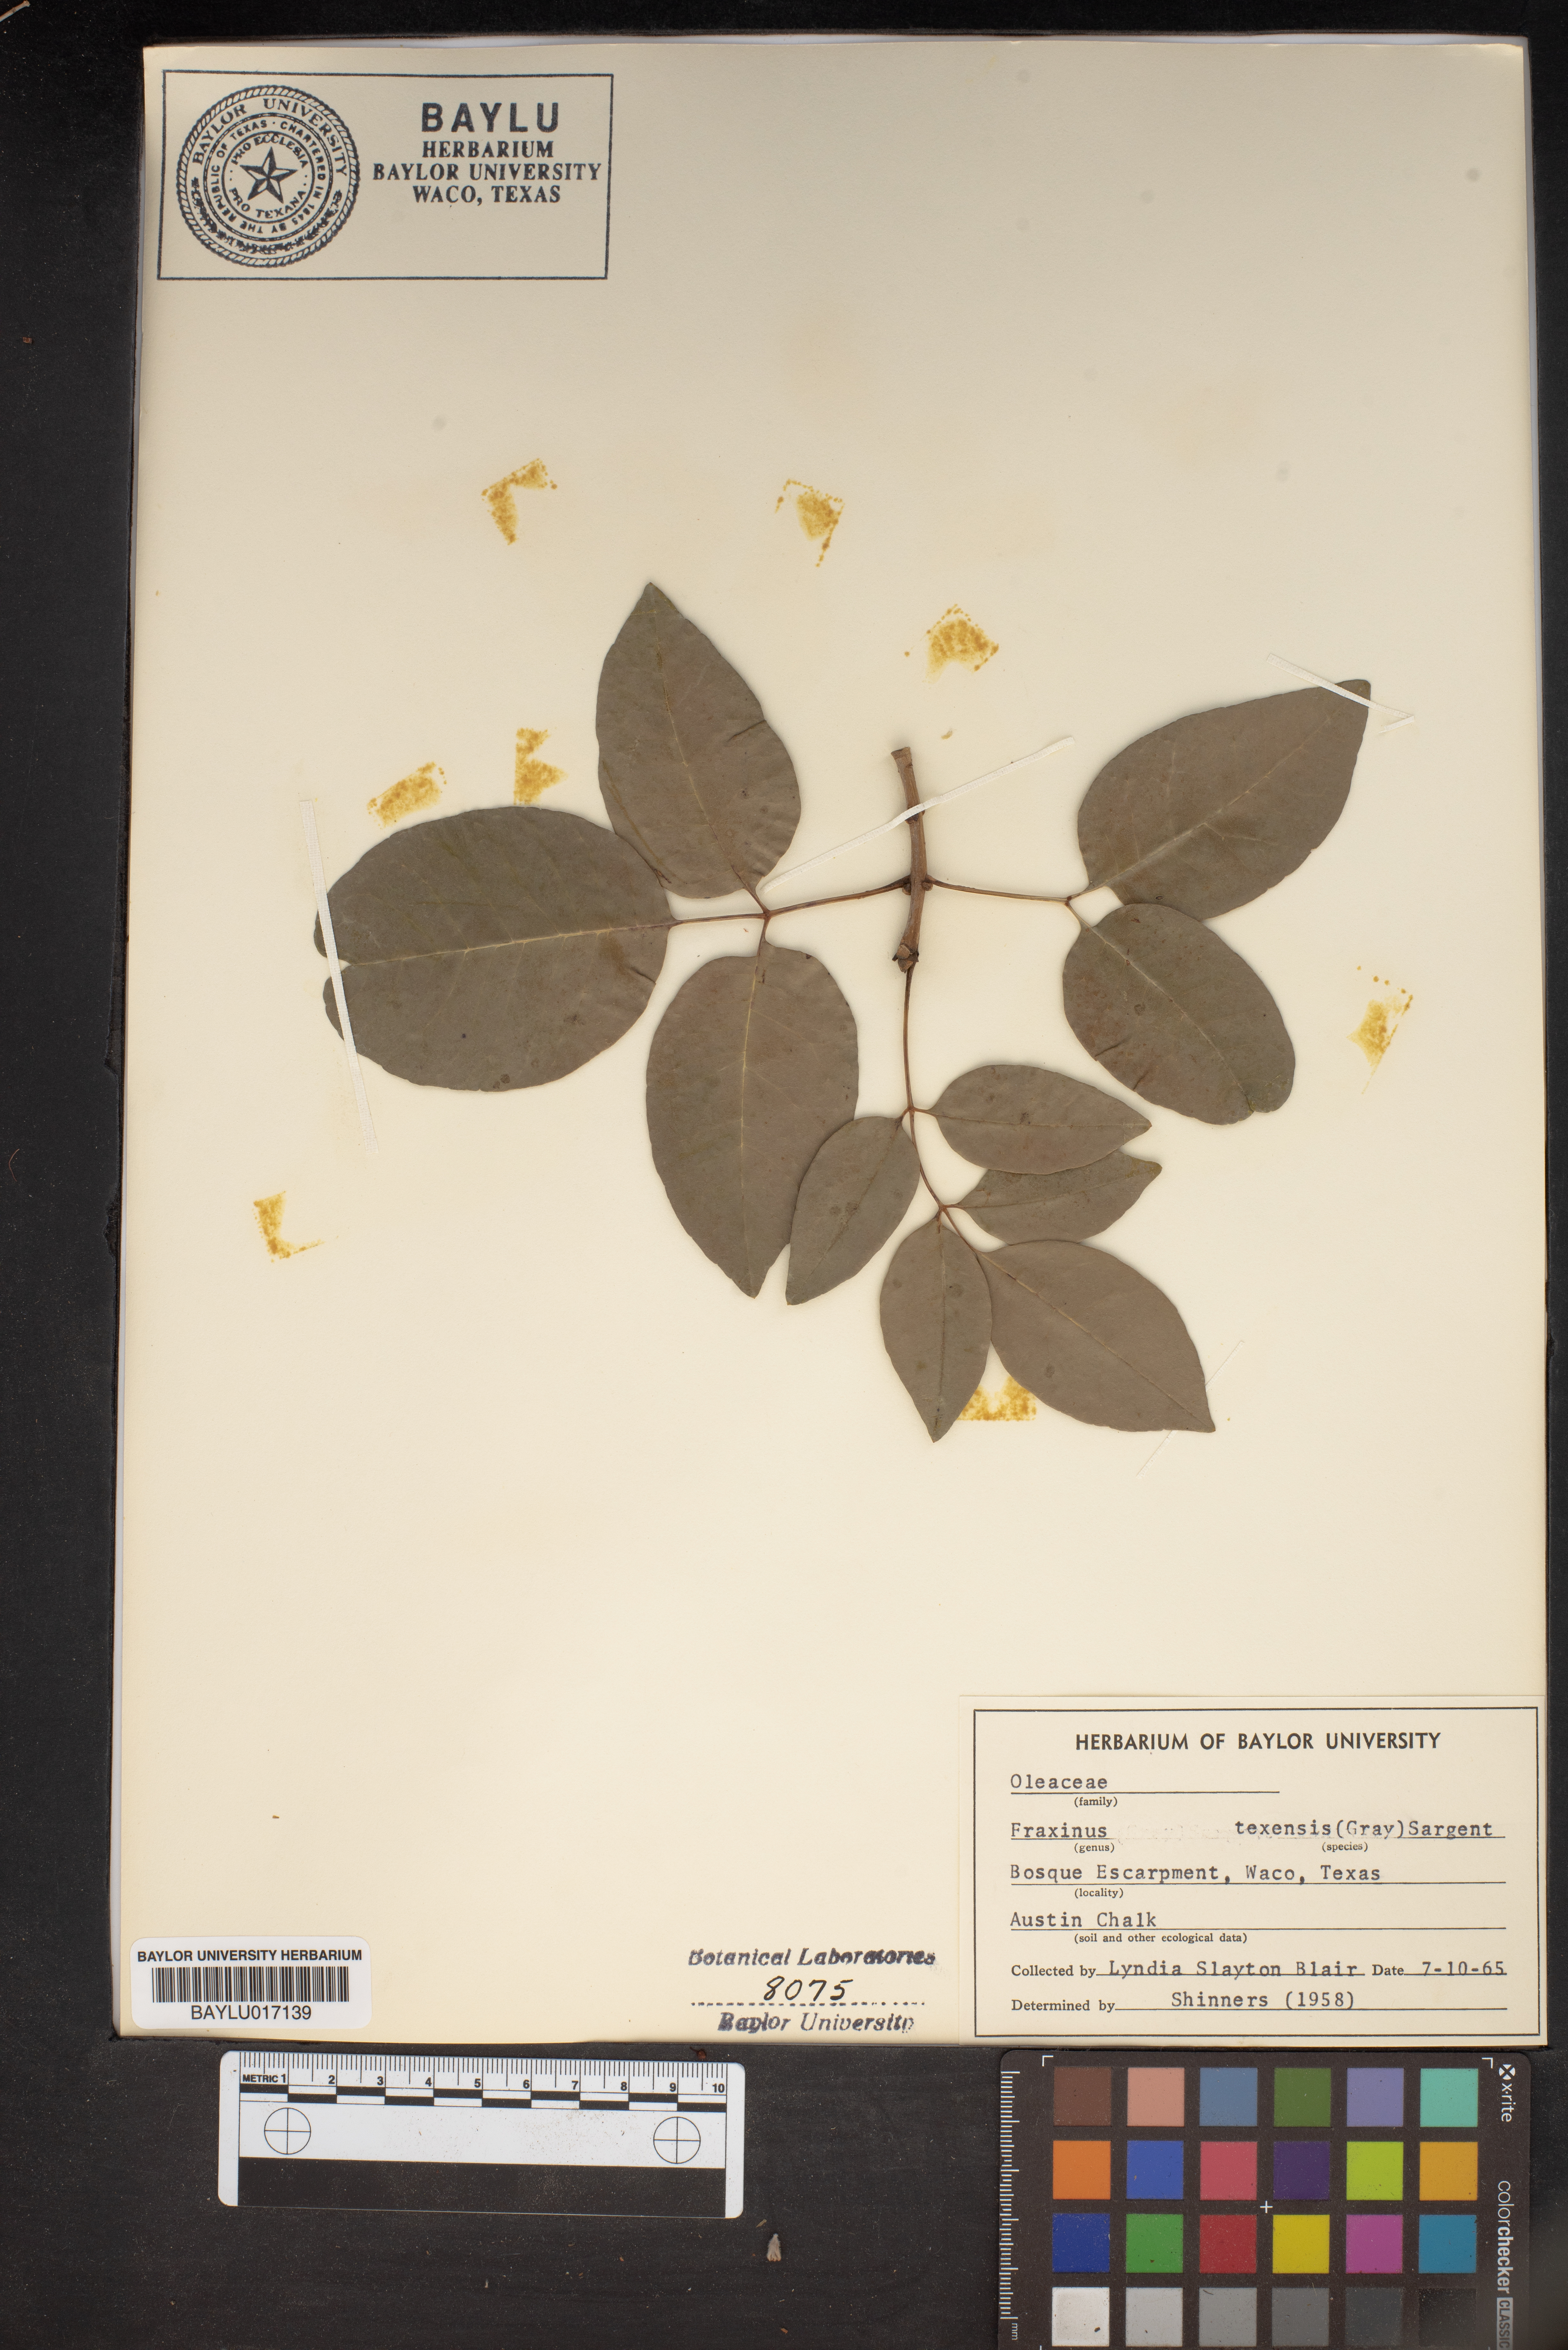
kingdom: Plantae
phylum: Tracheophyta
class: Magnoliopsida
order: Lamiales
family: Oleaceae
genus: Fraxinus
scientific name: Fraxinus albicans
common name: Texas ash
